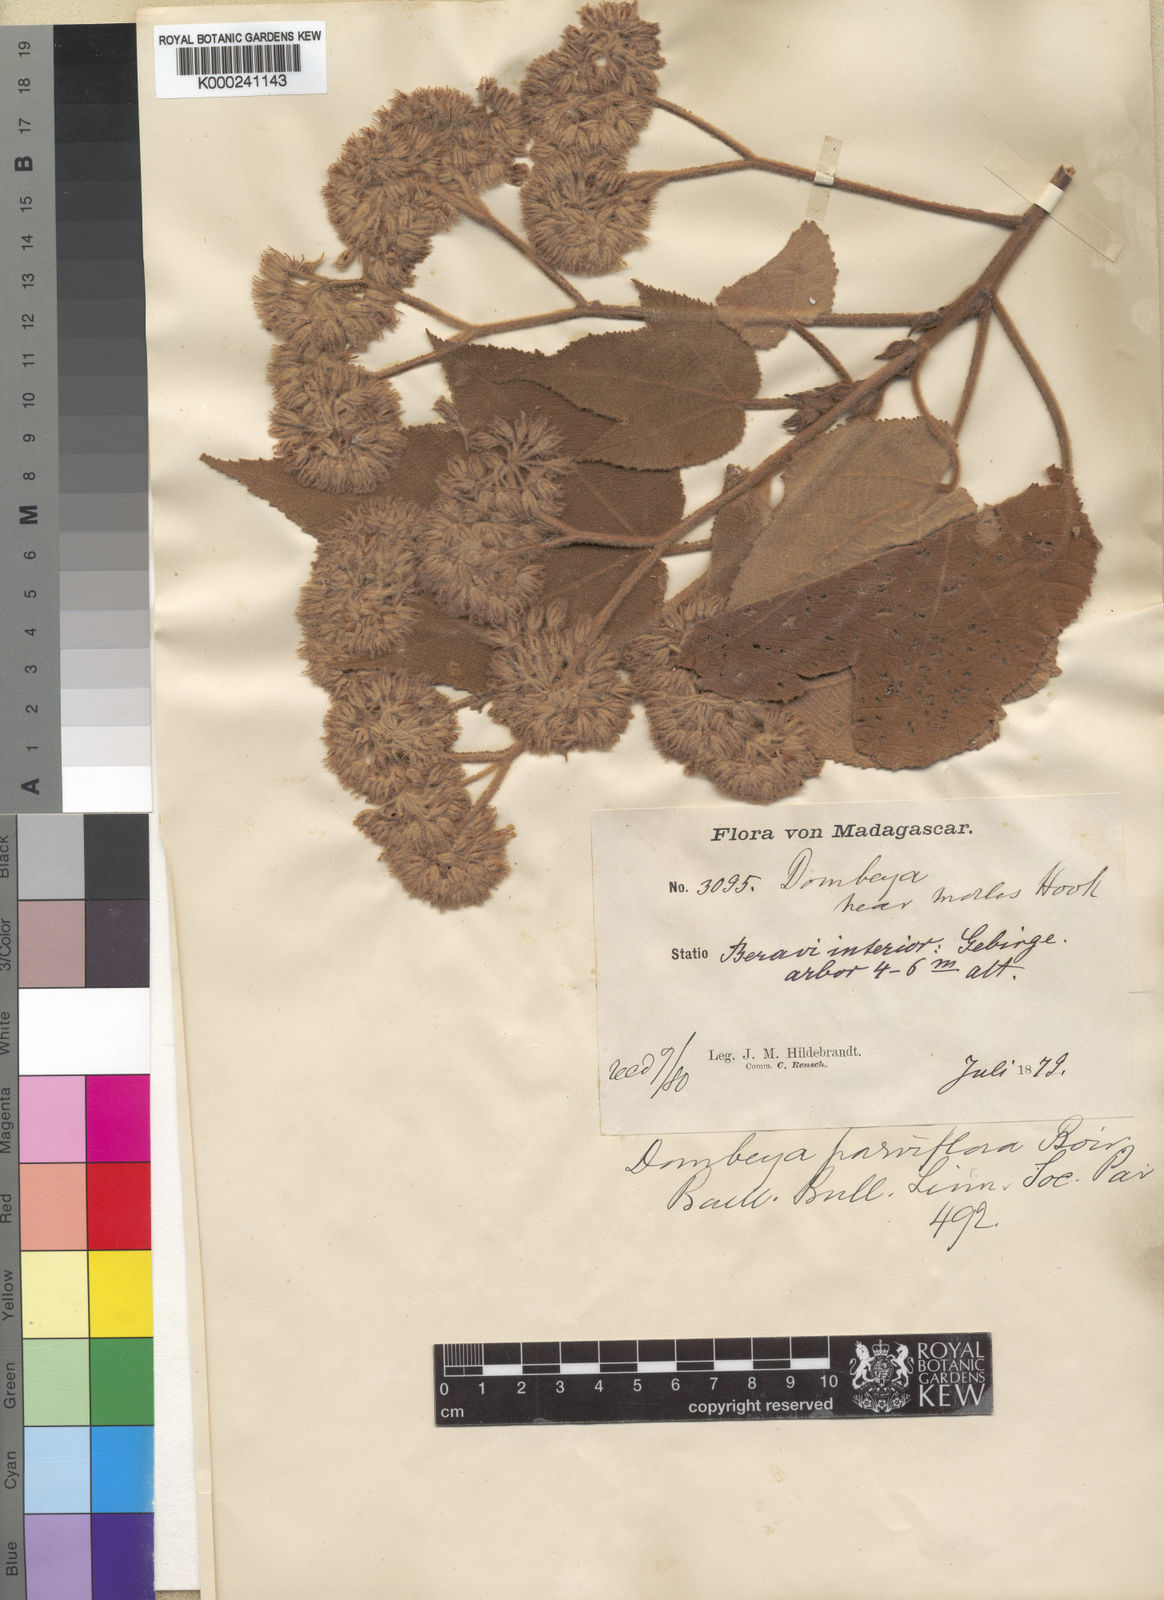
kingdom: Plantae
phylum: Tracheophyta
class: Magnoliopsida
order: Malvales
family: Malvaceae
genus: Dombeya
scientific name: Dombeya mollis
